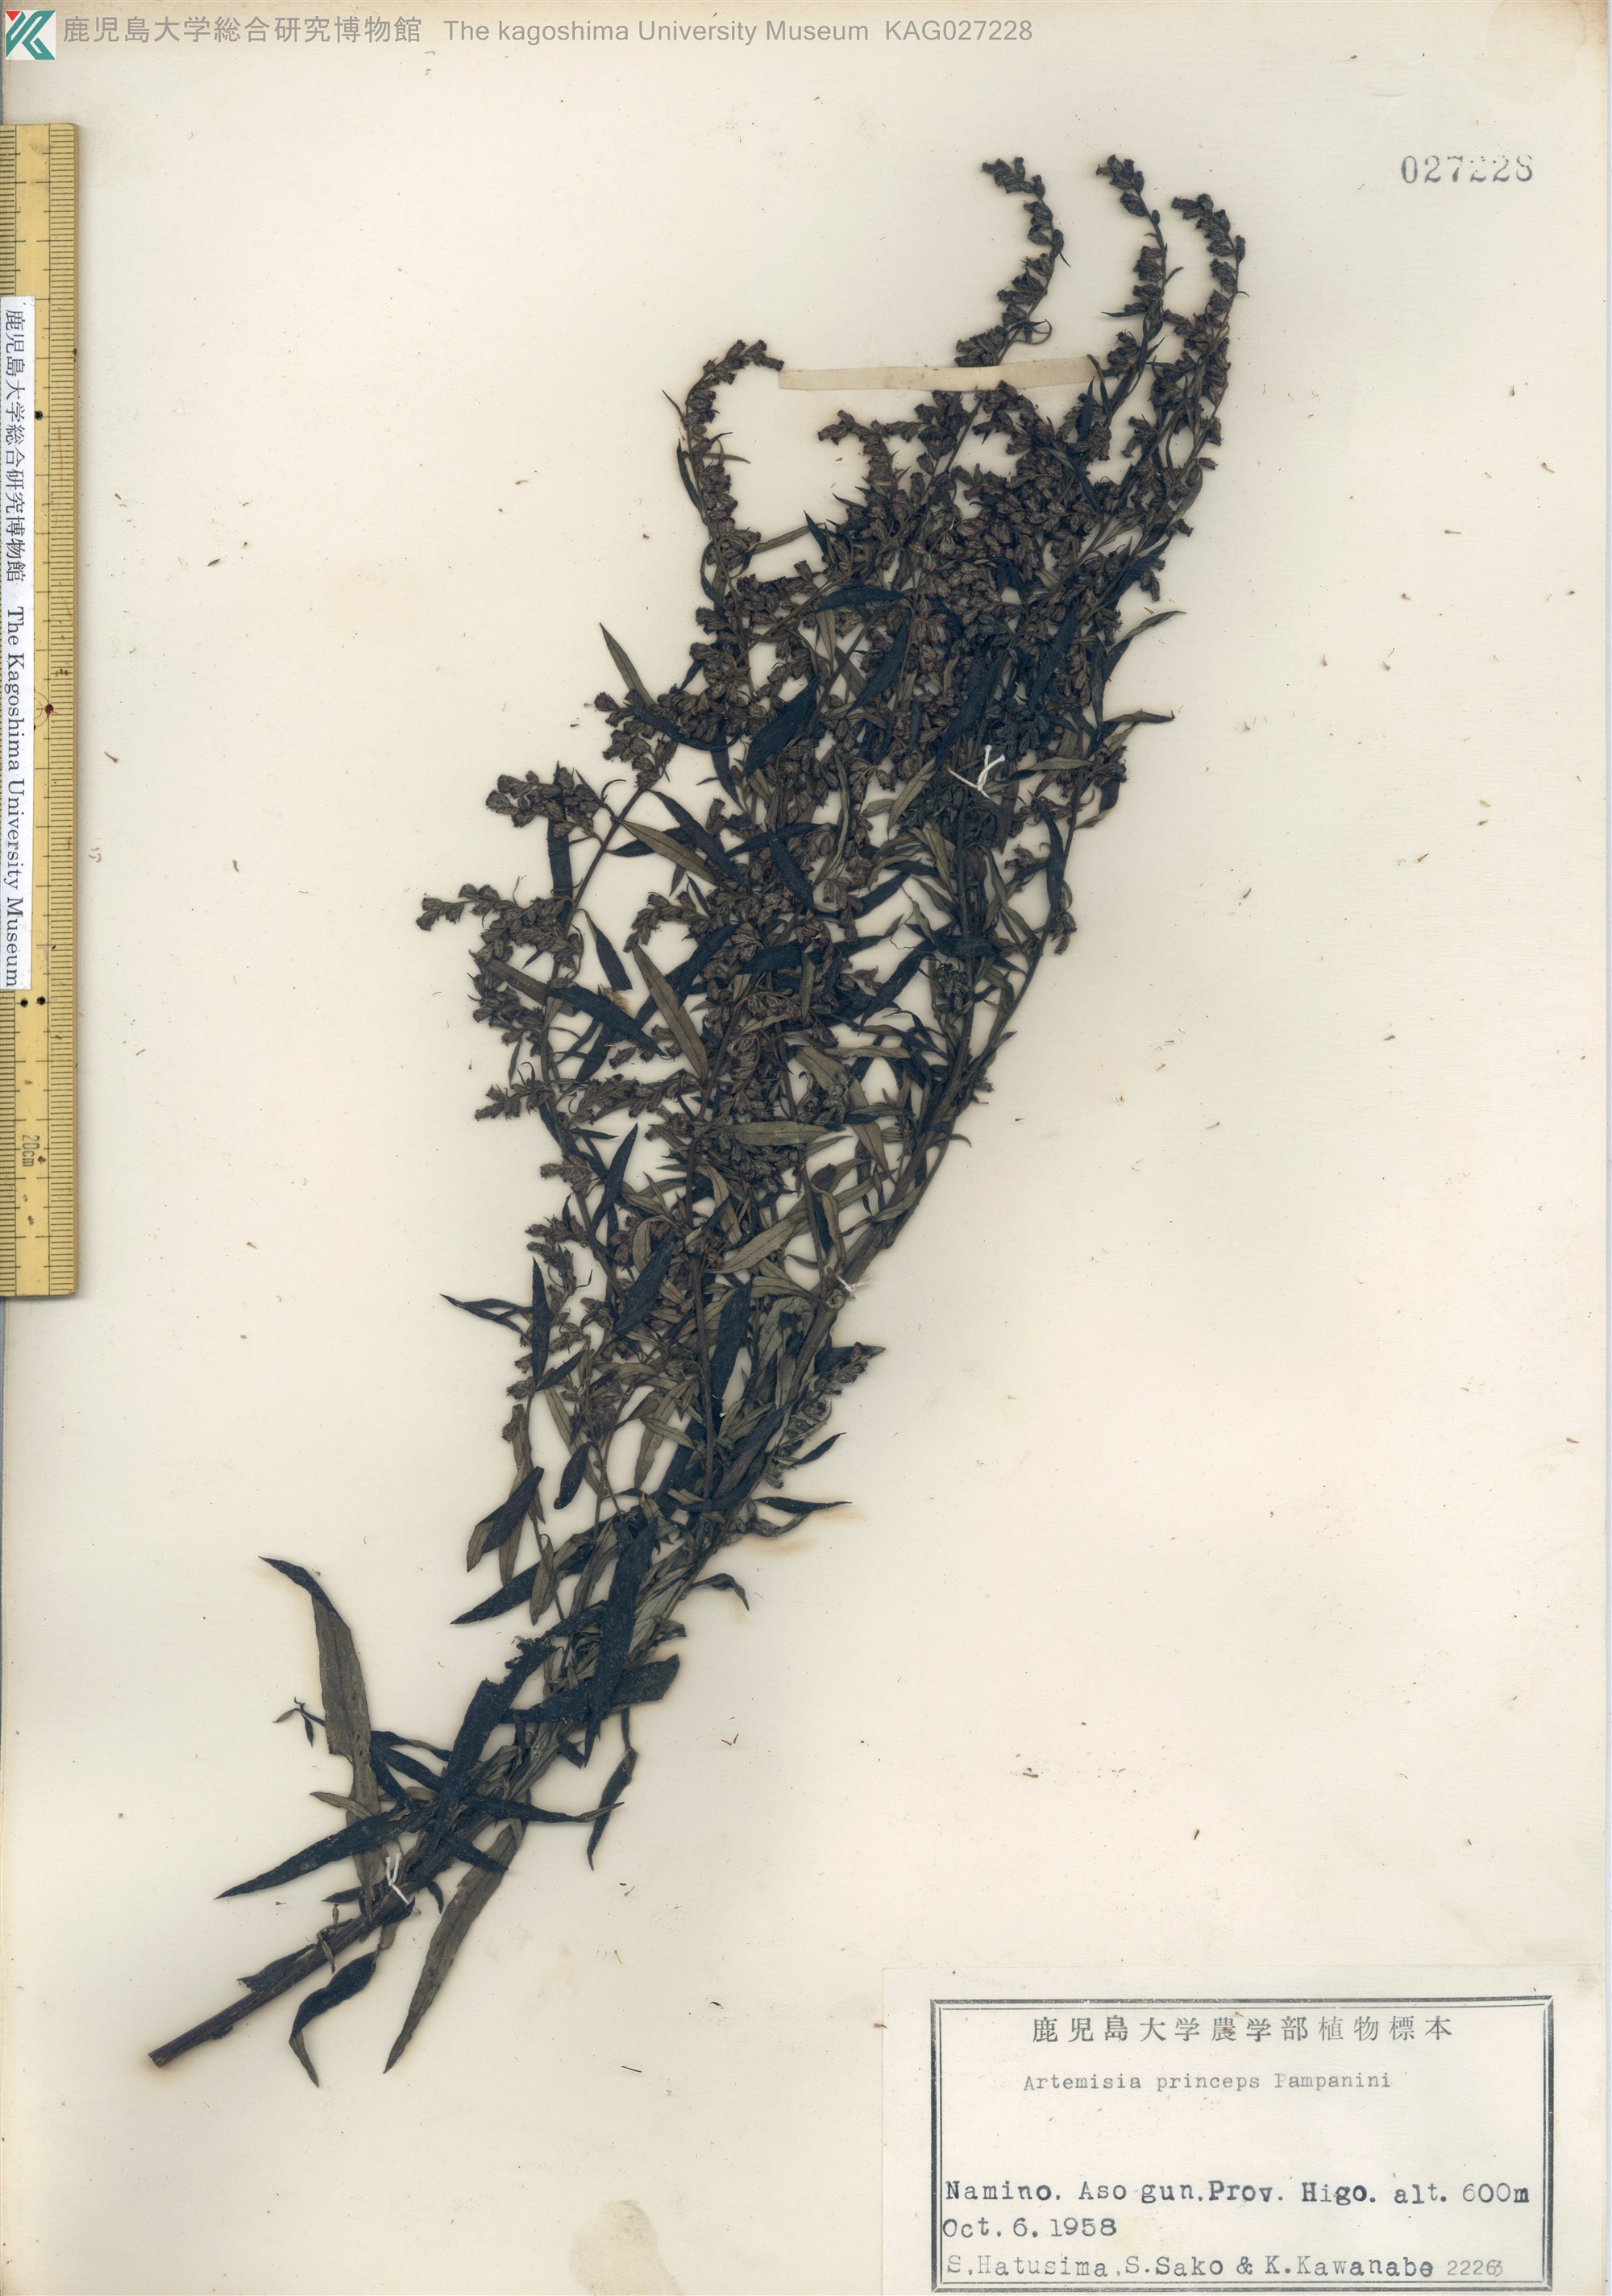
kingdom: Plantae
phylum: Tracheophyta
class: Magnoliopsida
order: Asterales
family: Asteraceae
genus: Artemisia
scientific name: Artemisia princeps
